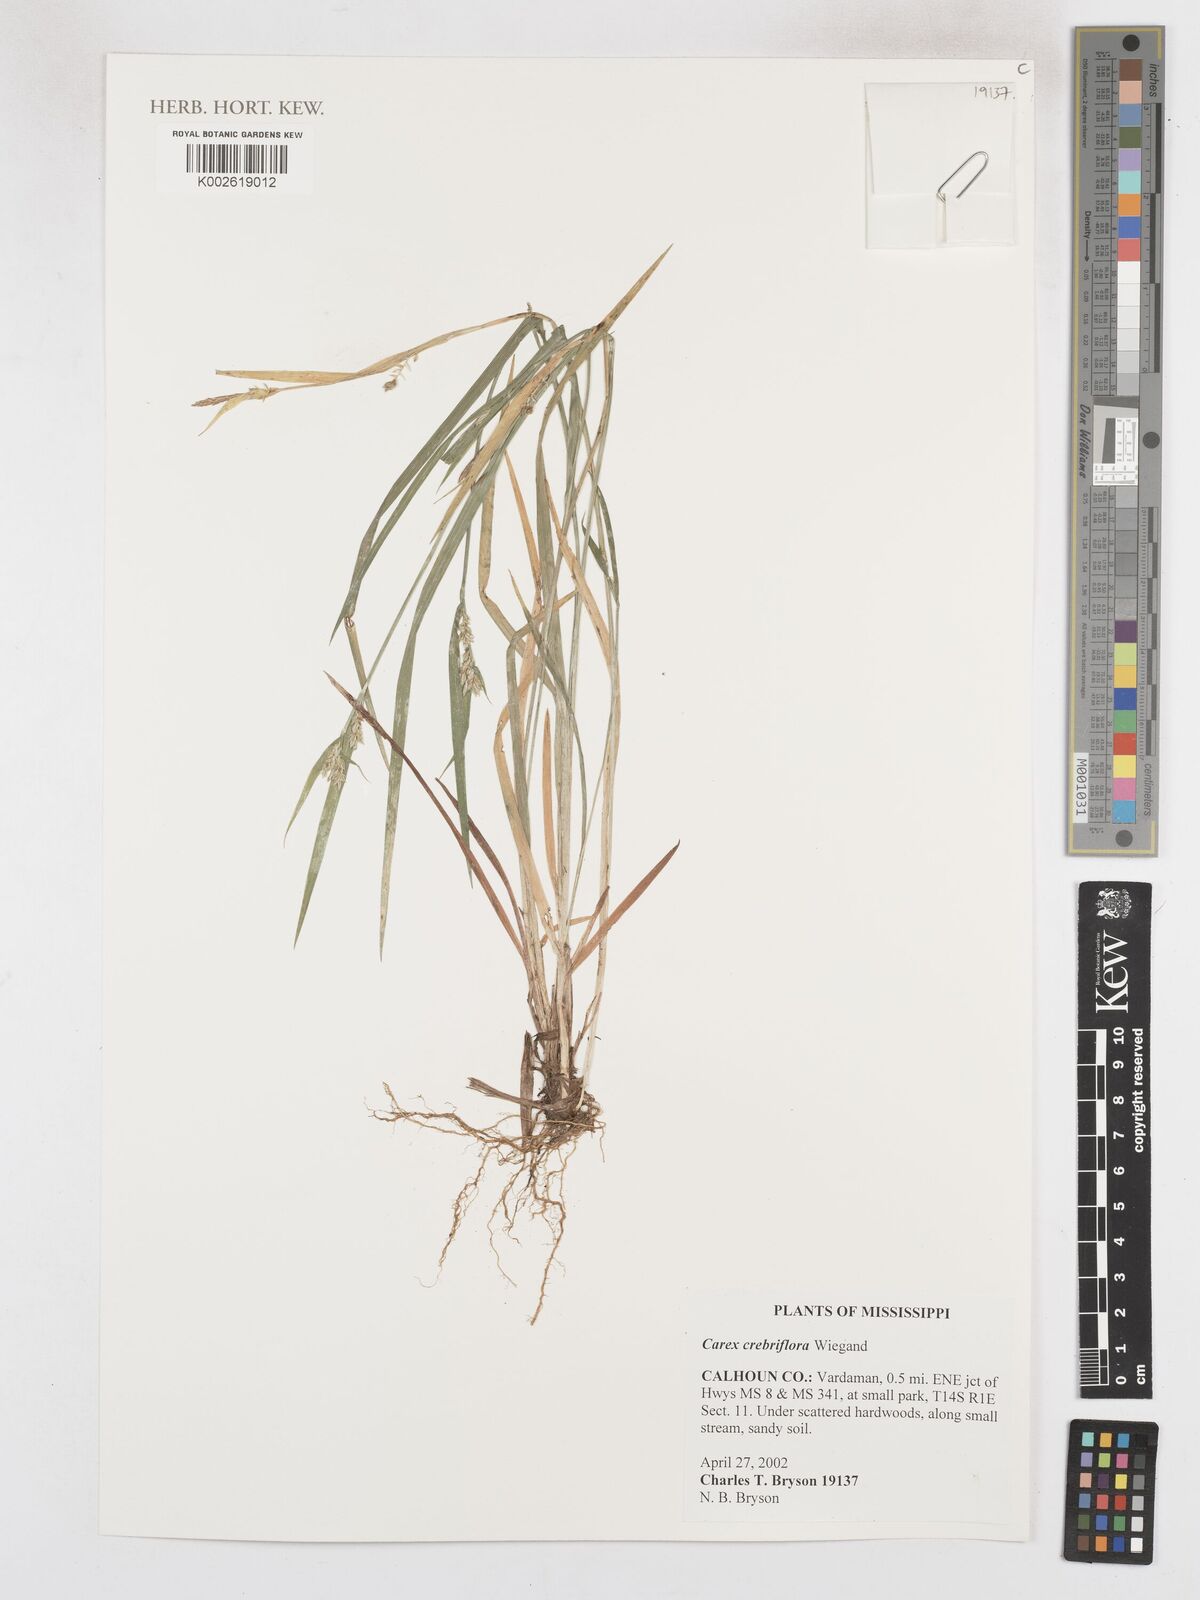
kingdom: Plantae
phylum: Tracheophyta
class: Liliopsida
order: Poales
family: Cyperaceae
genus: Carex
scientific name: Carex crebriflora
